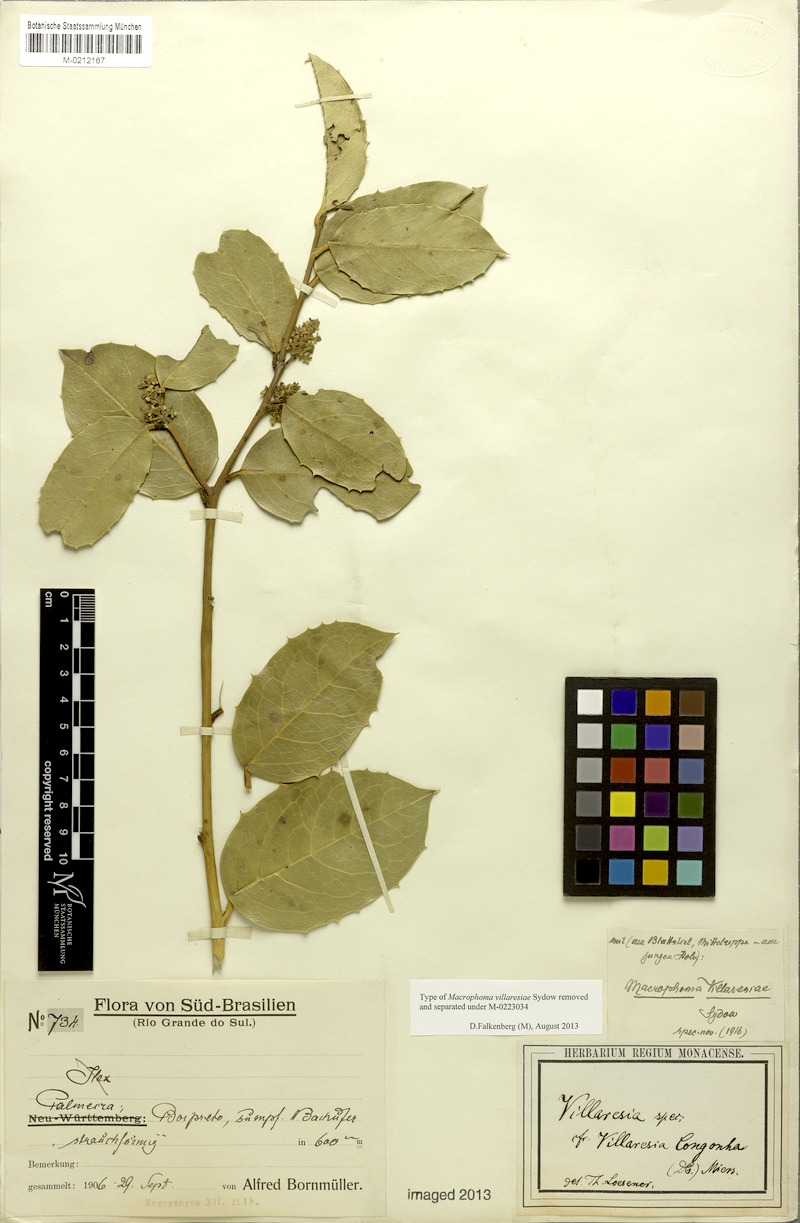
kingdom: Plantae
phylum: Tracheophyta
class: Magnoliopsida
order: Cardiopteridales
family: Cardiopteridaceae
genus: Citronella
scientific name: Citronella gongonha
